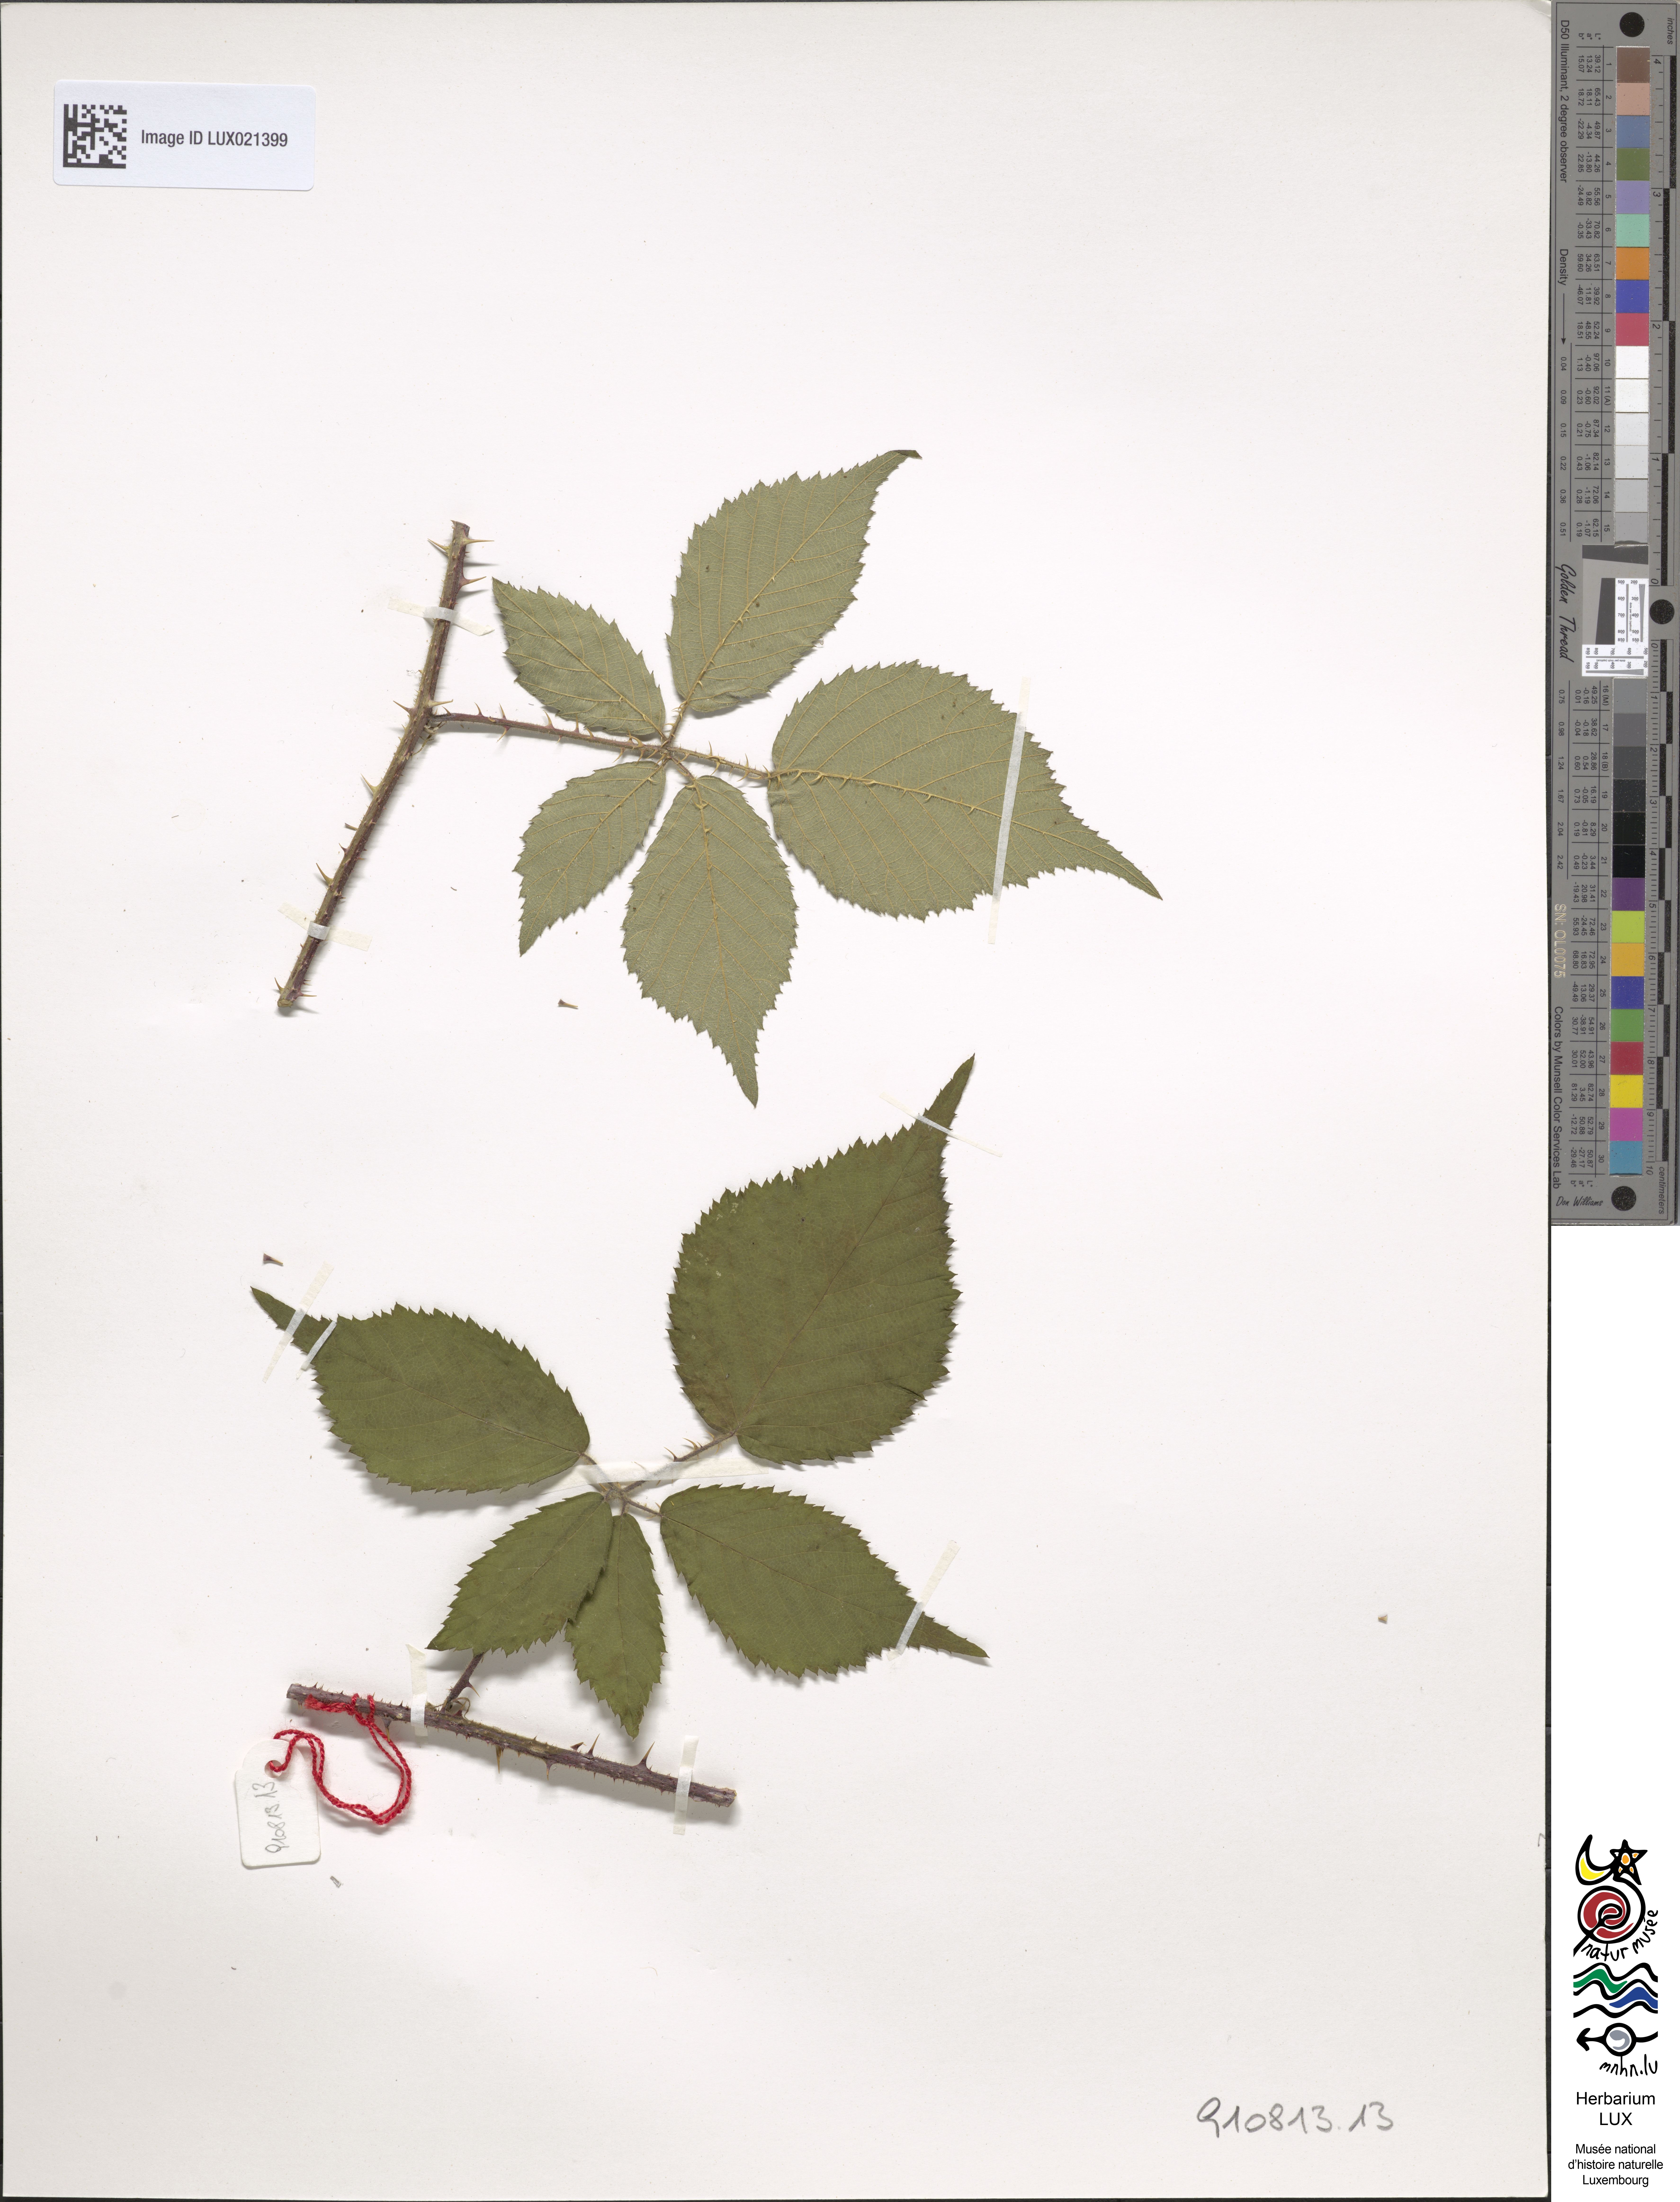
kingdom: Plantae
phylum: Tracheophyta
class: Magnoliopsida
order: Rosales
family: Rosaceae
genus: Rubus
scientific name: Rubus
